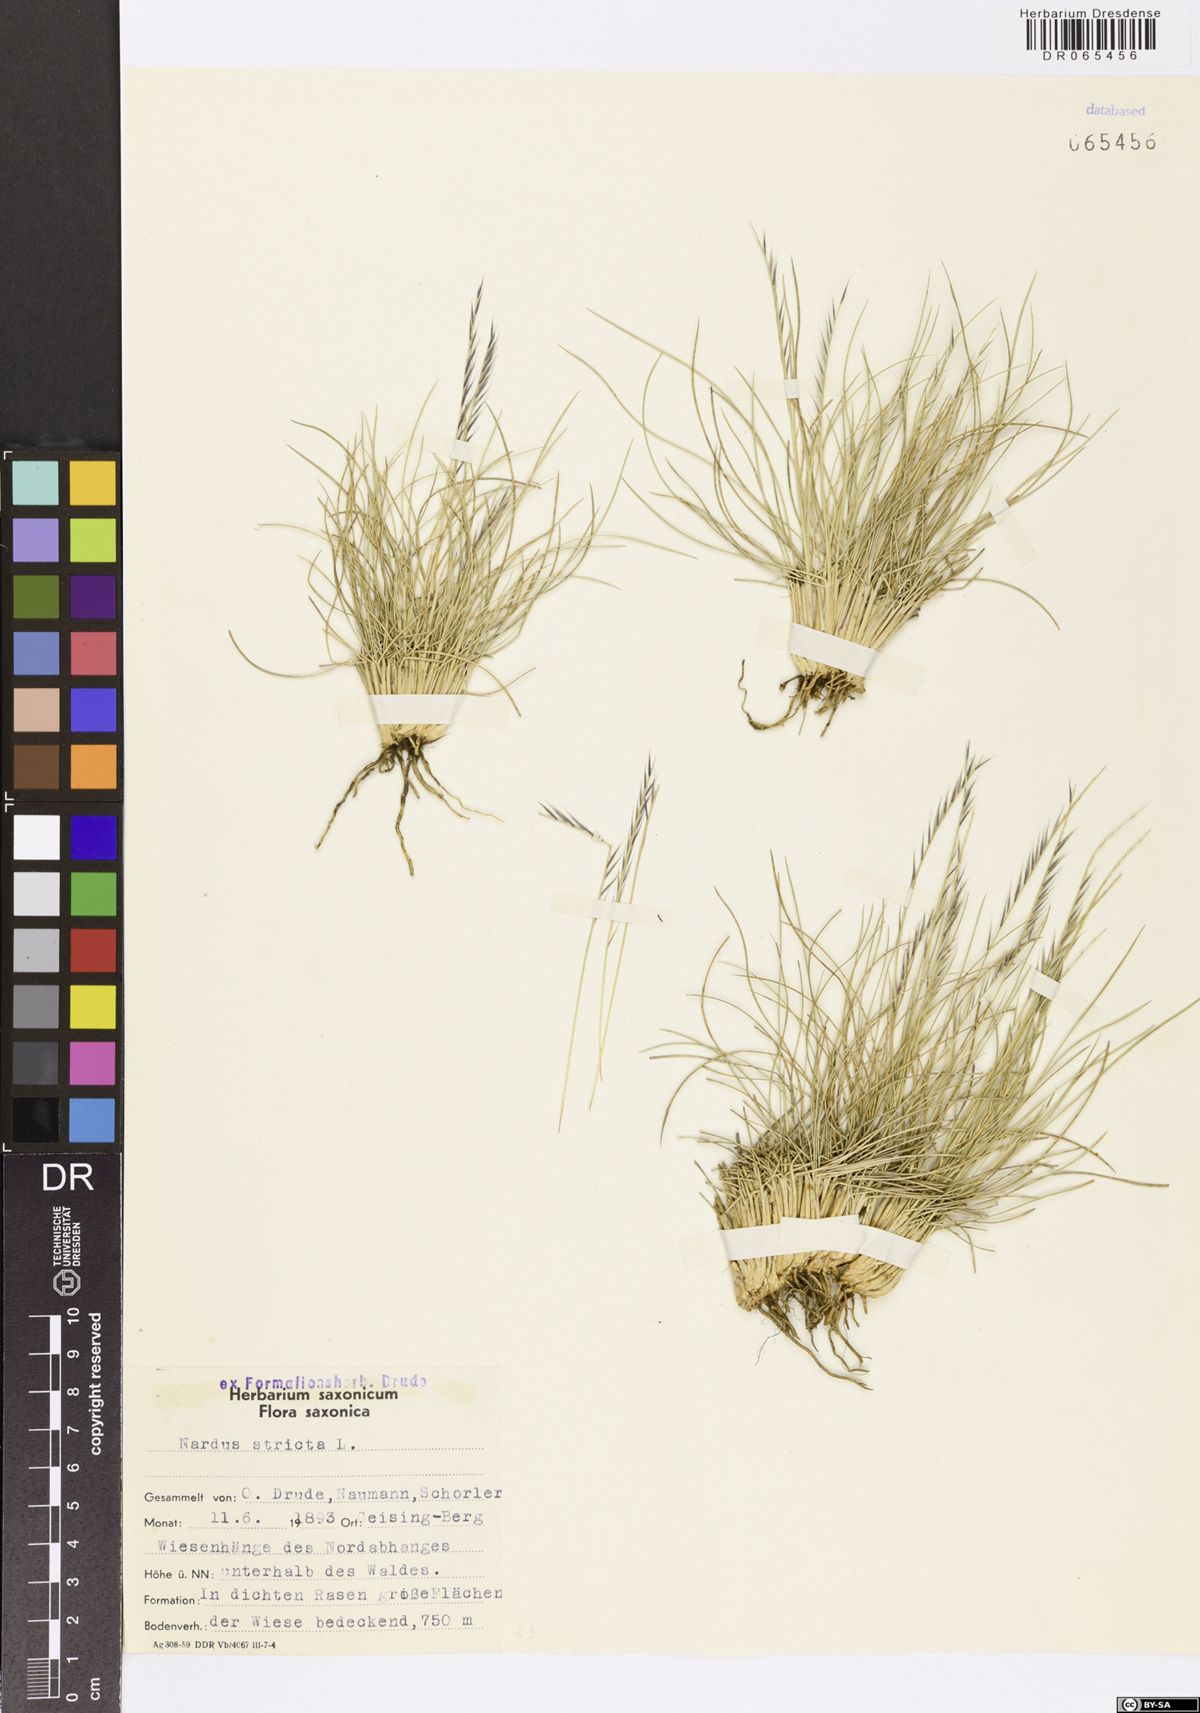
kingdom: Plantae
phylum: Tracheophyta
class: Liliopsida
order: Poales
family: Poaceae
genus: Nardus
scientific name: Nardus stricta
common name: Mat-grass
